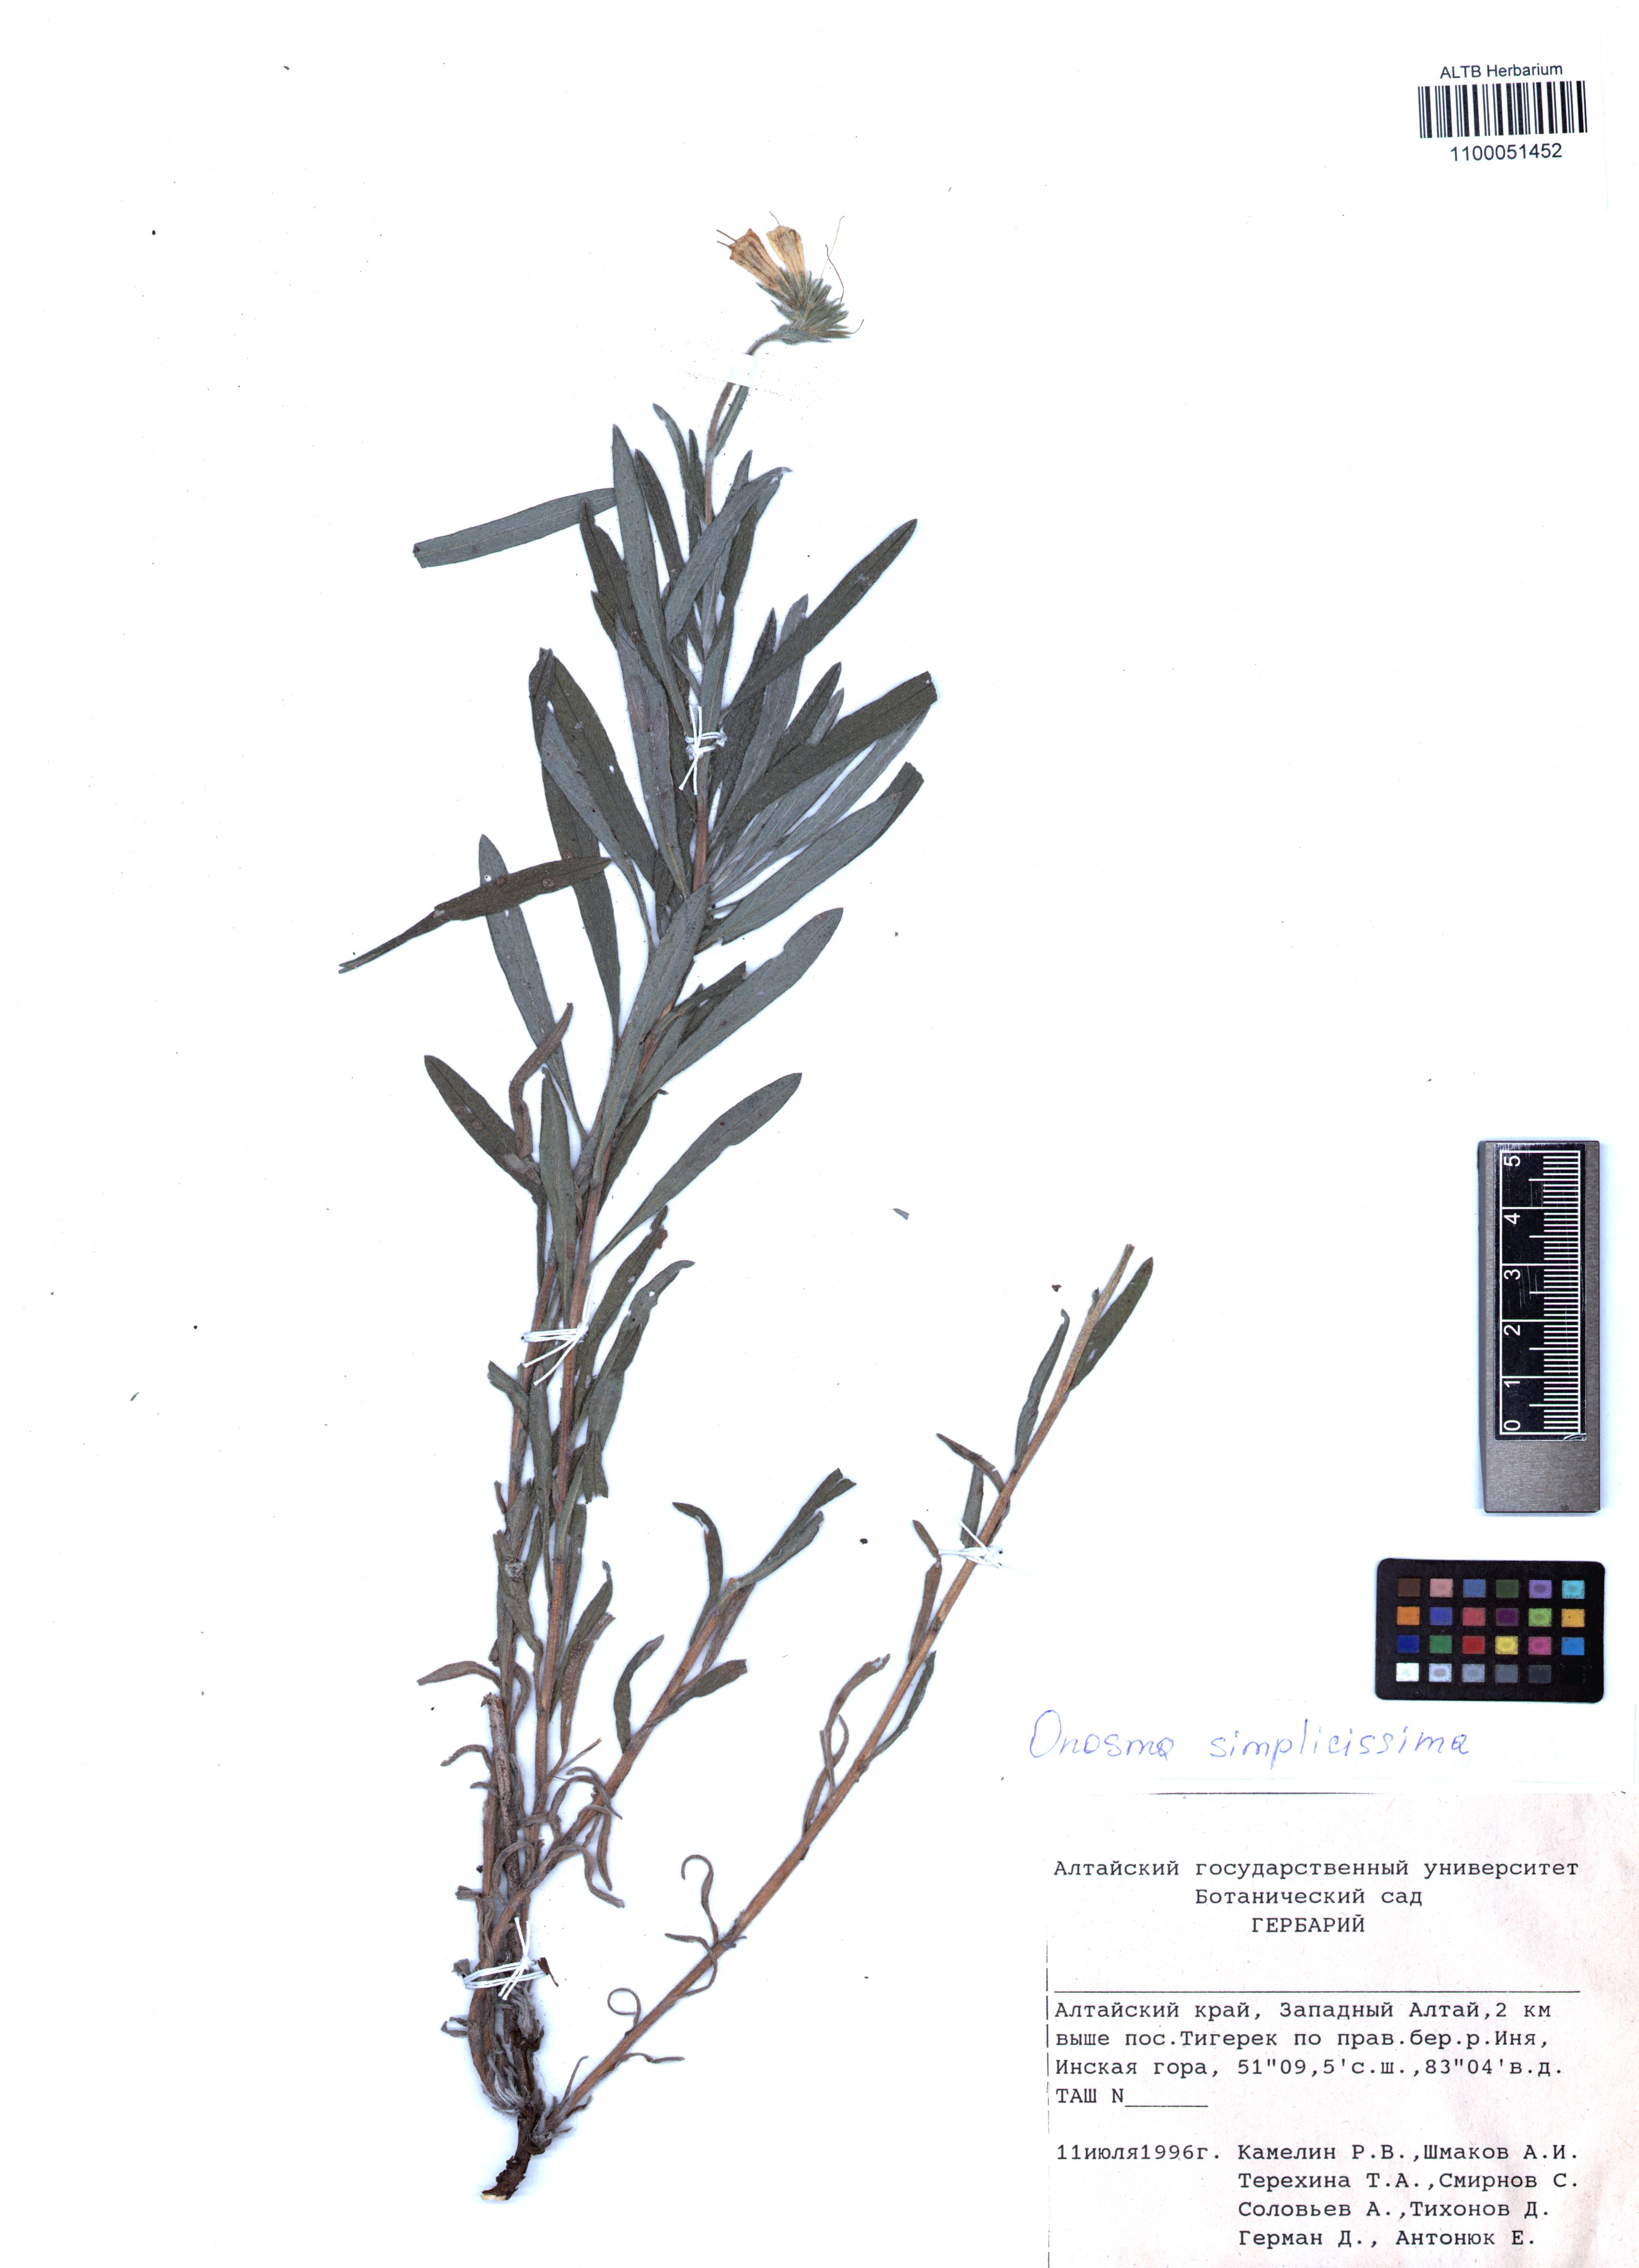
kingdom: Plantae
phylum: Tracheophyta
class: Magnoliopsida
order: Boraginales
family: Boraginaceae
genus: Onosma
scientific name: Onosma simplicissima
